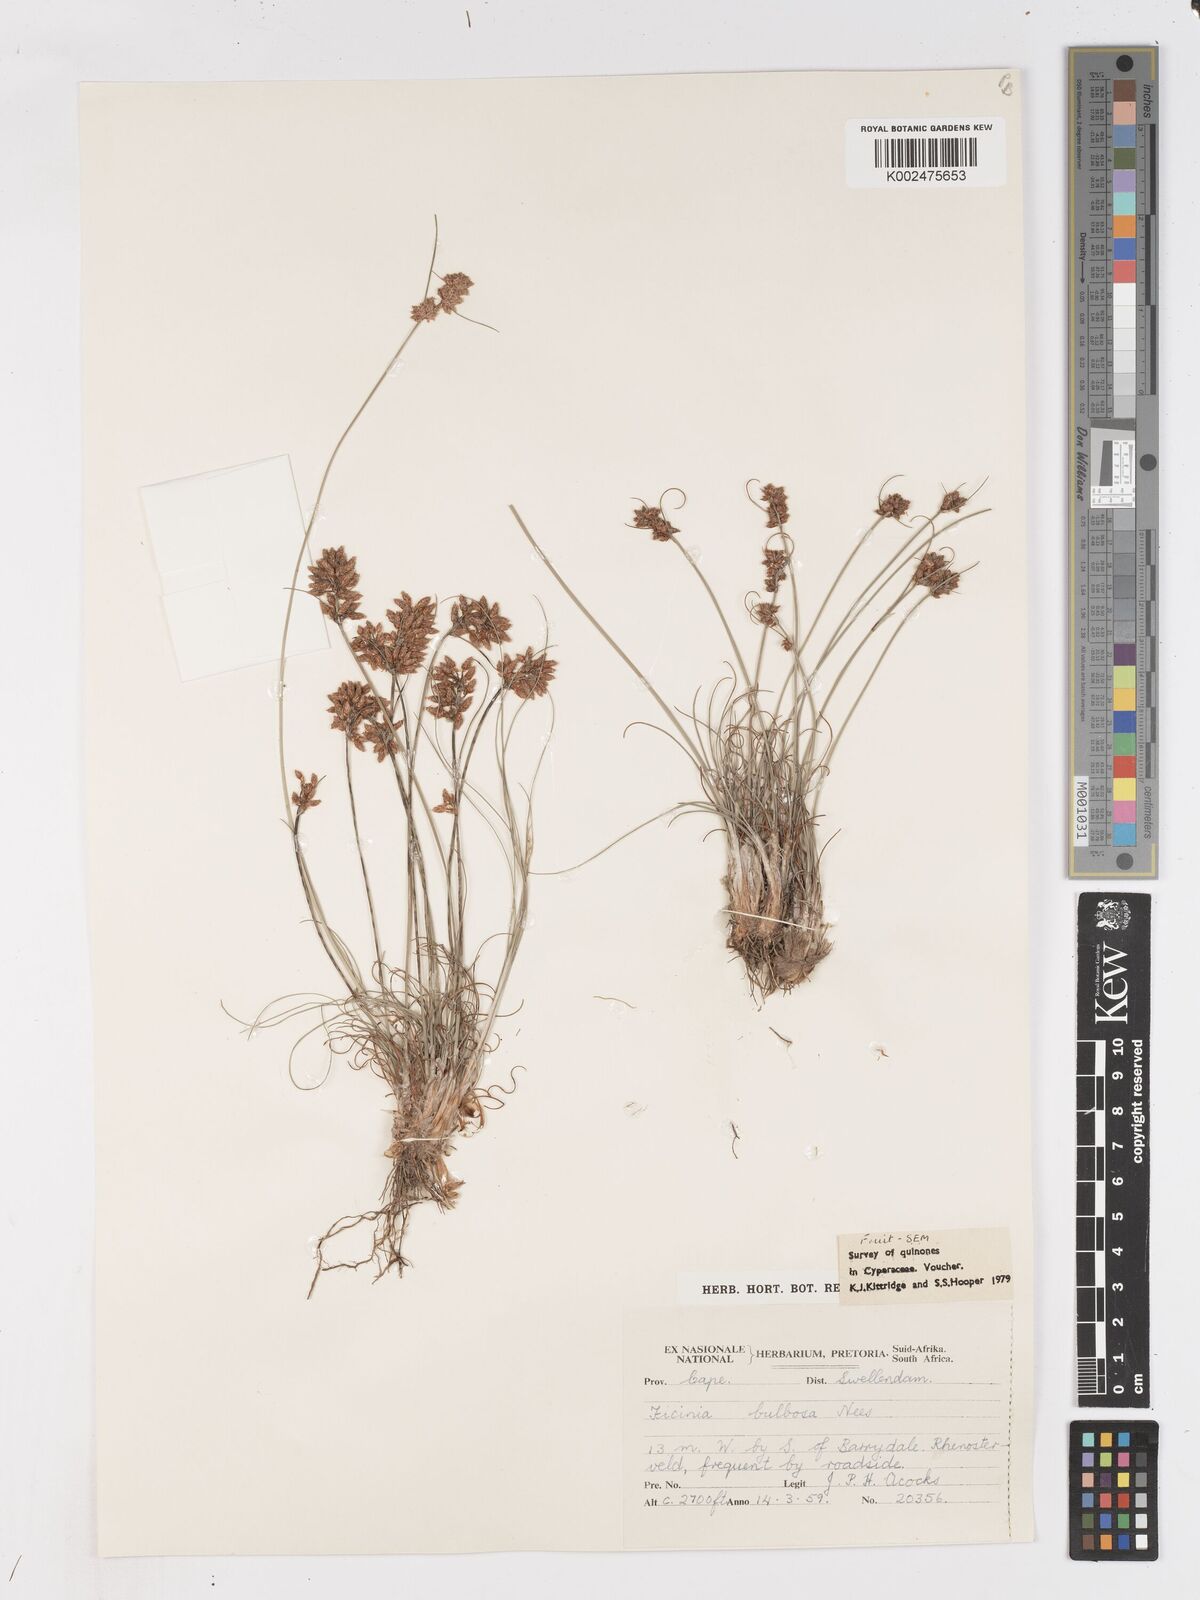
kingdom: Plantae
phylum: Tracheophyta
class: Liliopsida
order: Poales
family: Cyperaceae
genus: Ficinia
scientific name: Ficinia bulbosa
